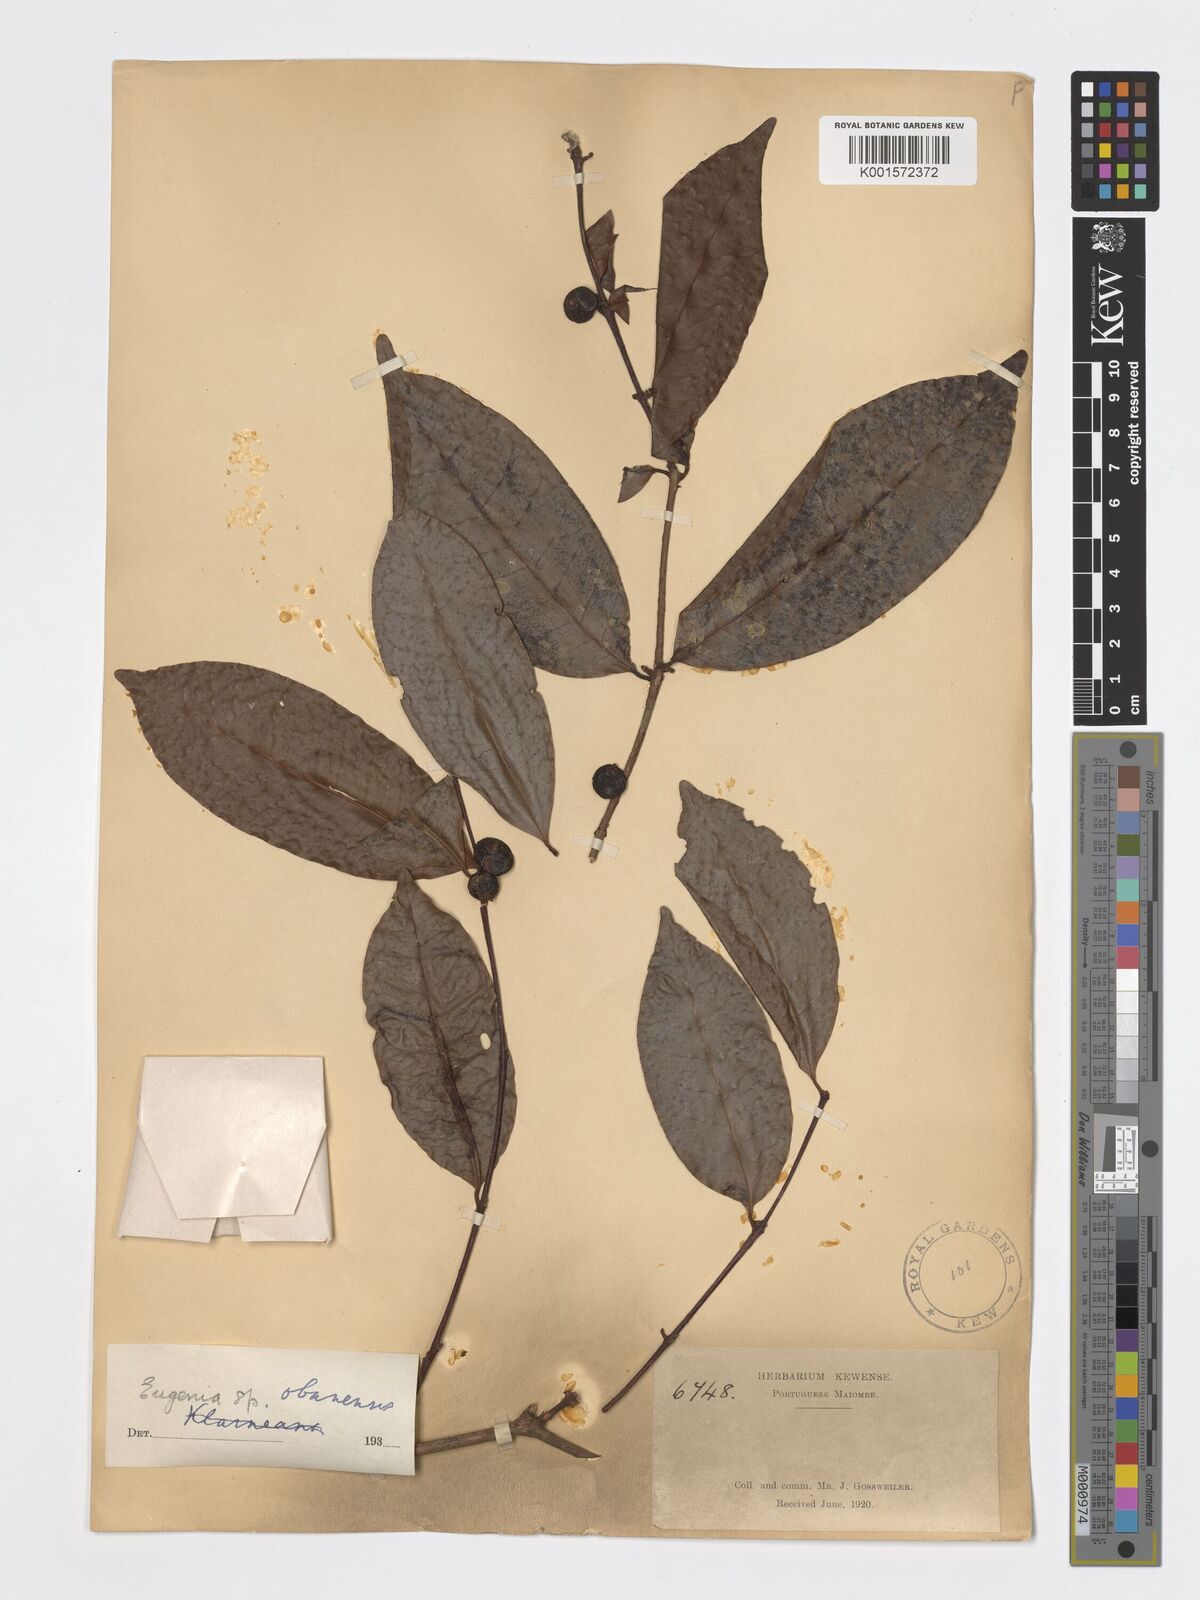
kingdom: Plantae
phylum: Tracheophyta
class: Magnoliopsida
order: Myrtales
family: Myrtaceae
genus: Eugenia
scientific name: Eugenia obanensis
